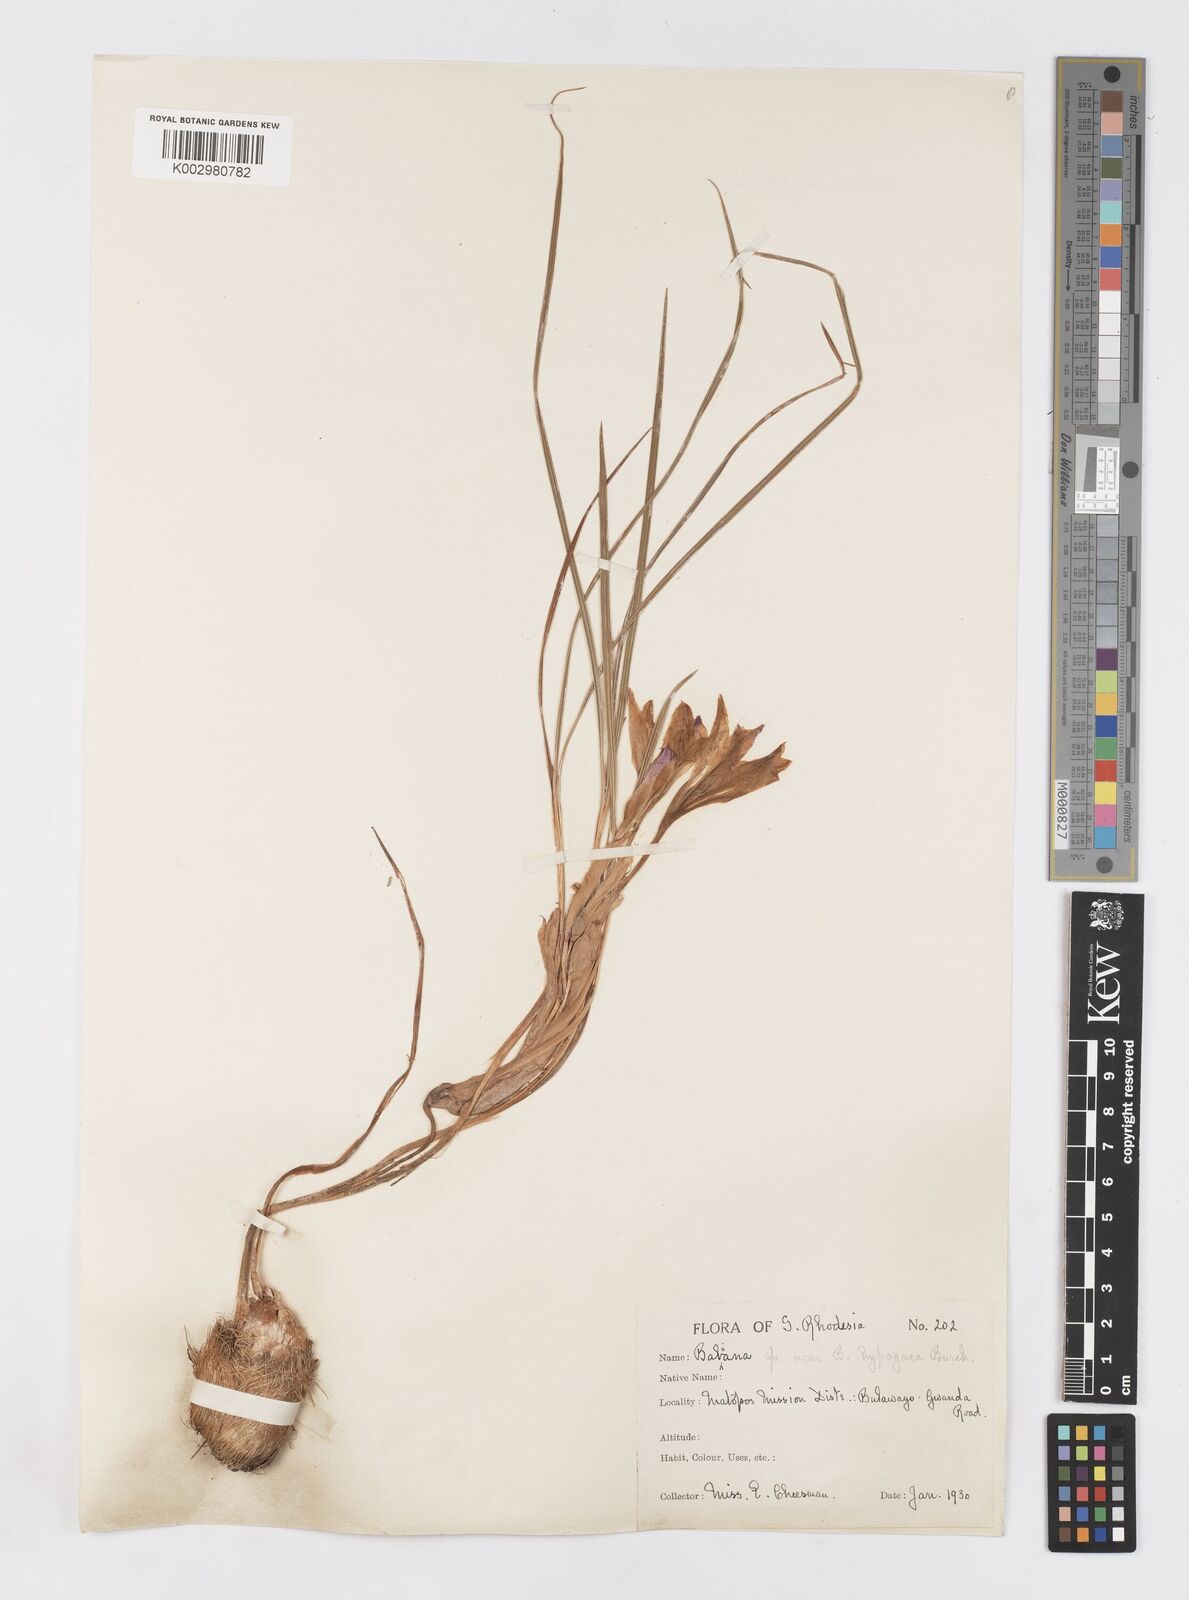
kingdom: Plantae
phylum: Tracheophyta
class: Liliopsida
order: Asparagales
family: Iridaceae
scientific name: Iridaceae
